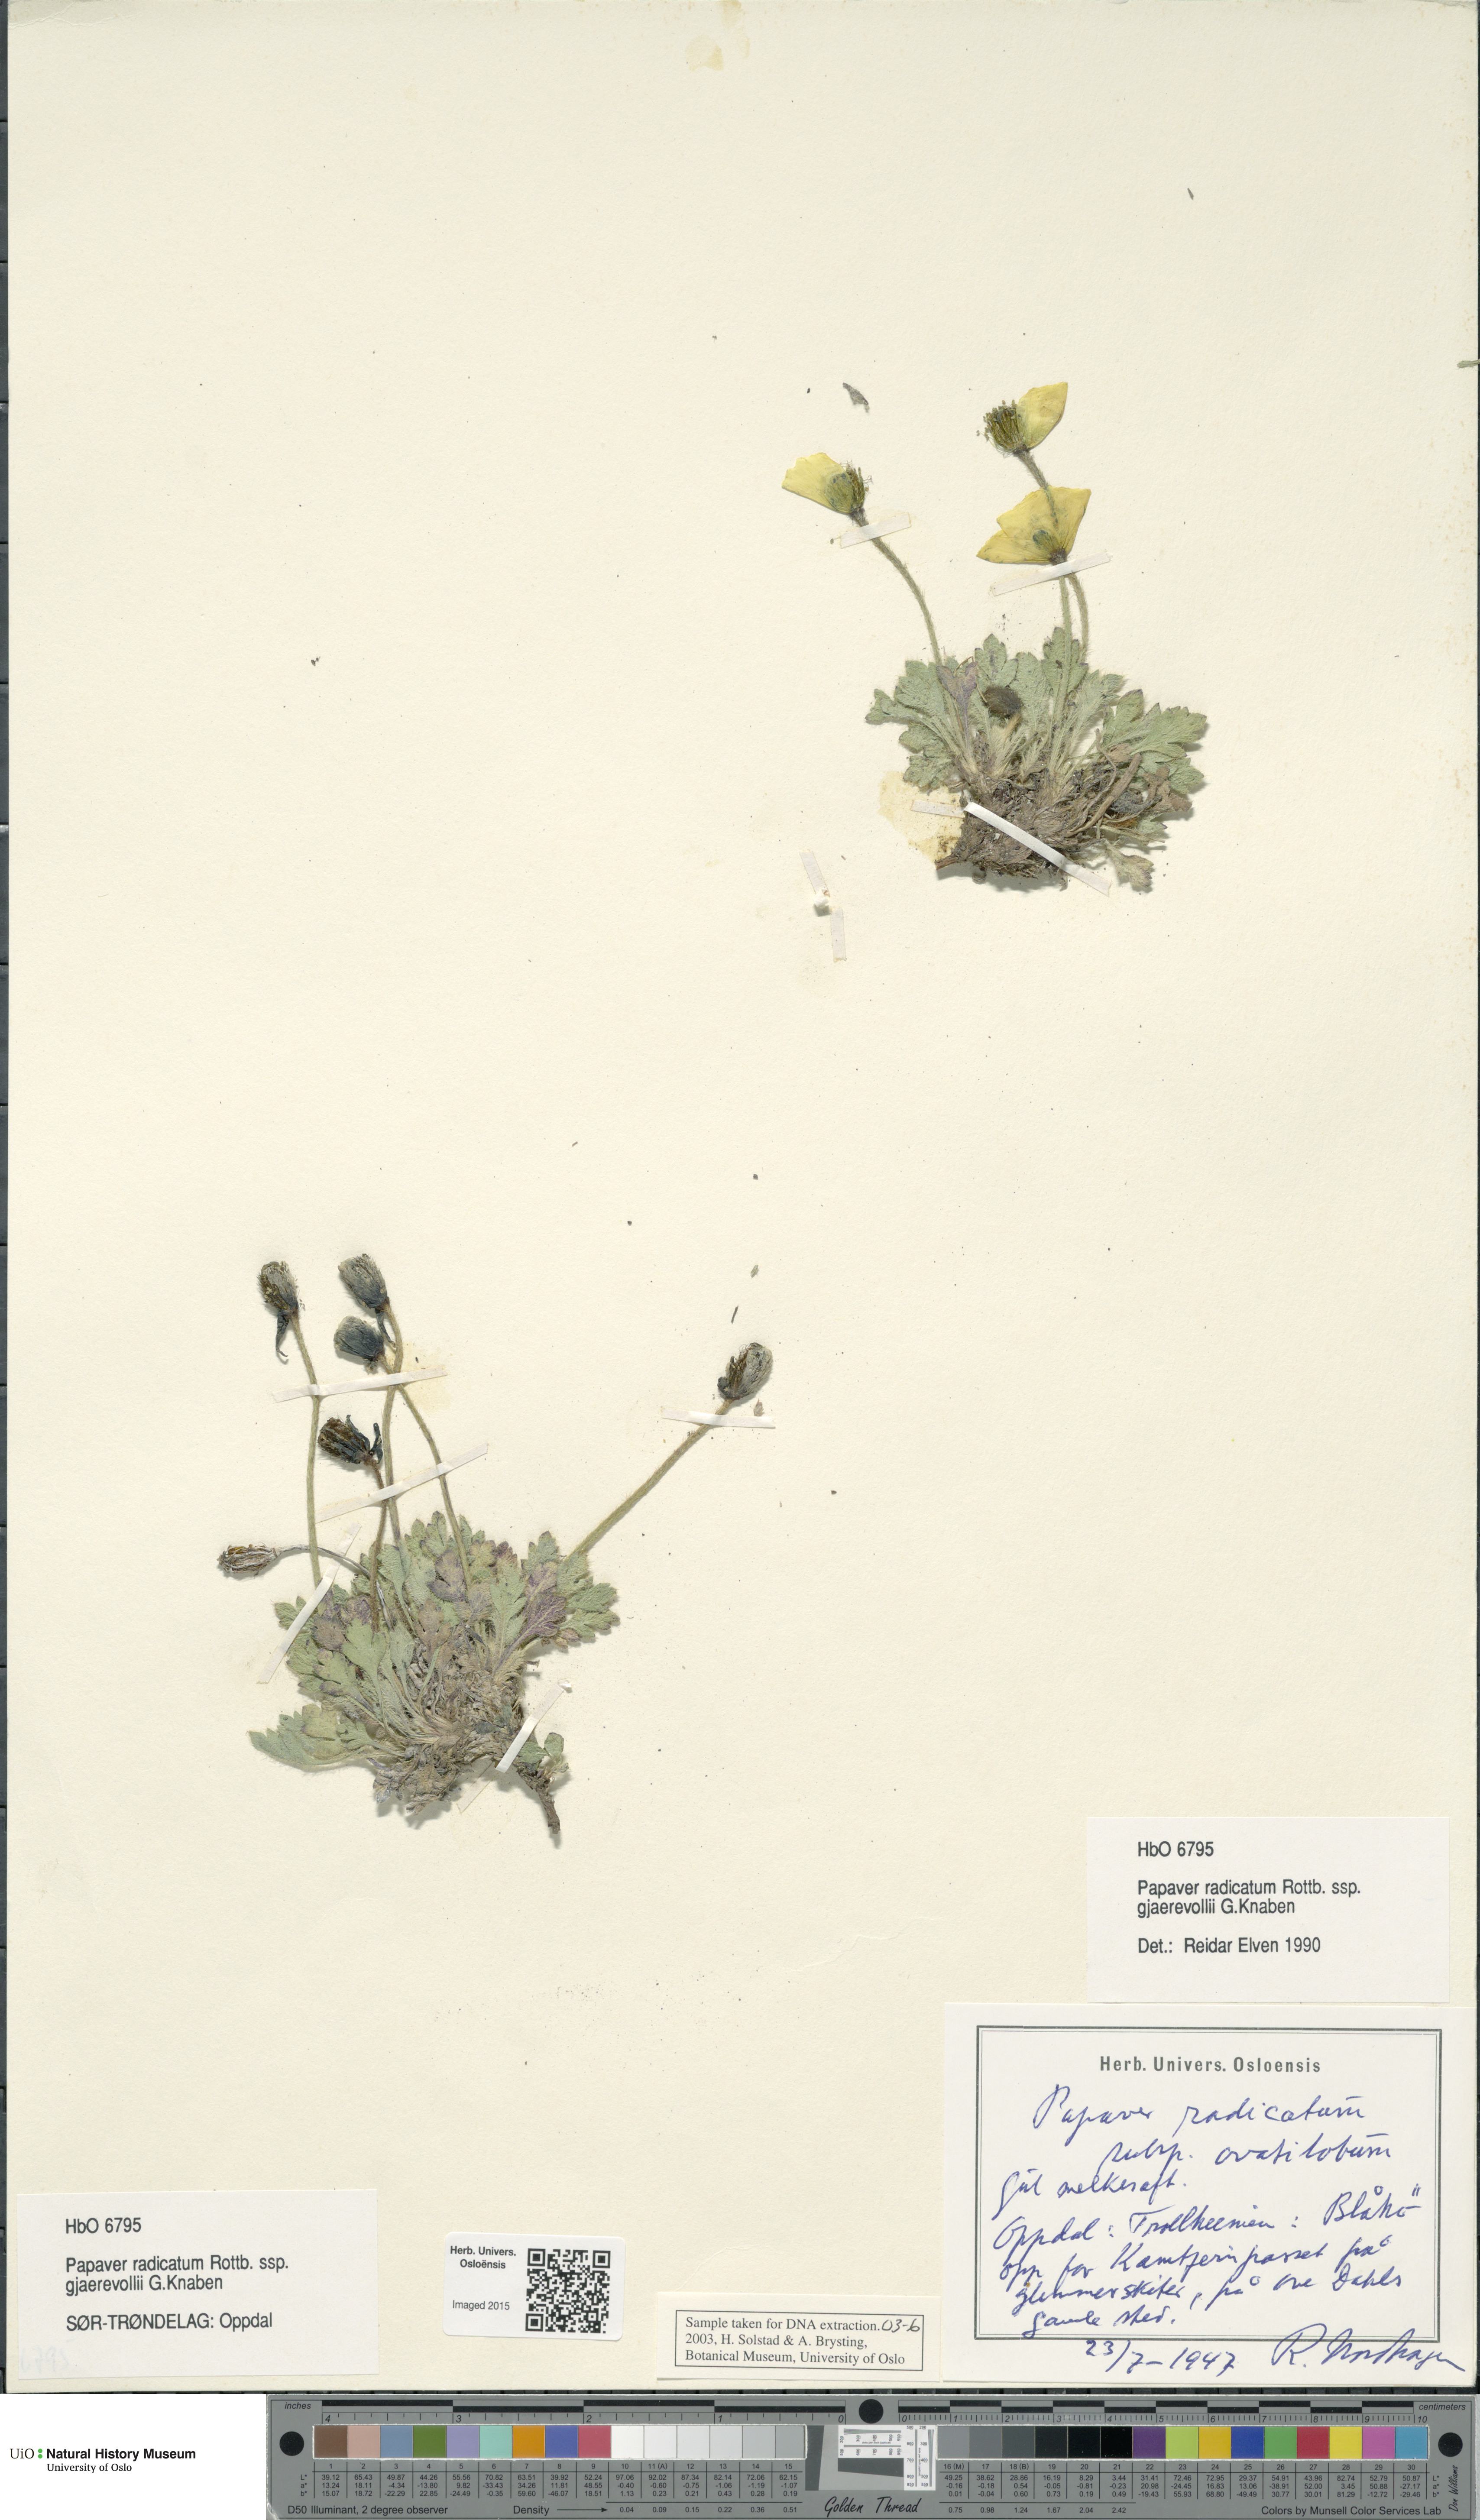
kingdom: Plantae
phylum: Tracheophyta
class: Magnoliopsida
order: Ranunculales
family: Papaveraceae
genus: Papaver
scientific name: Papaver radicatum
